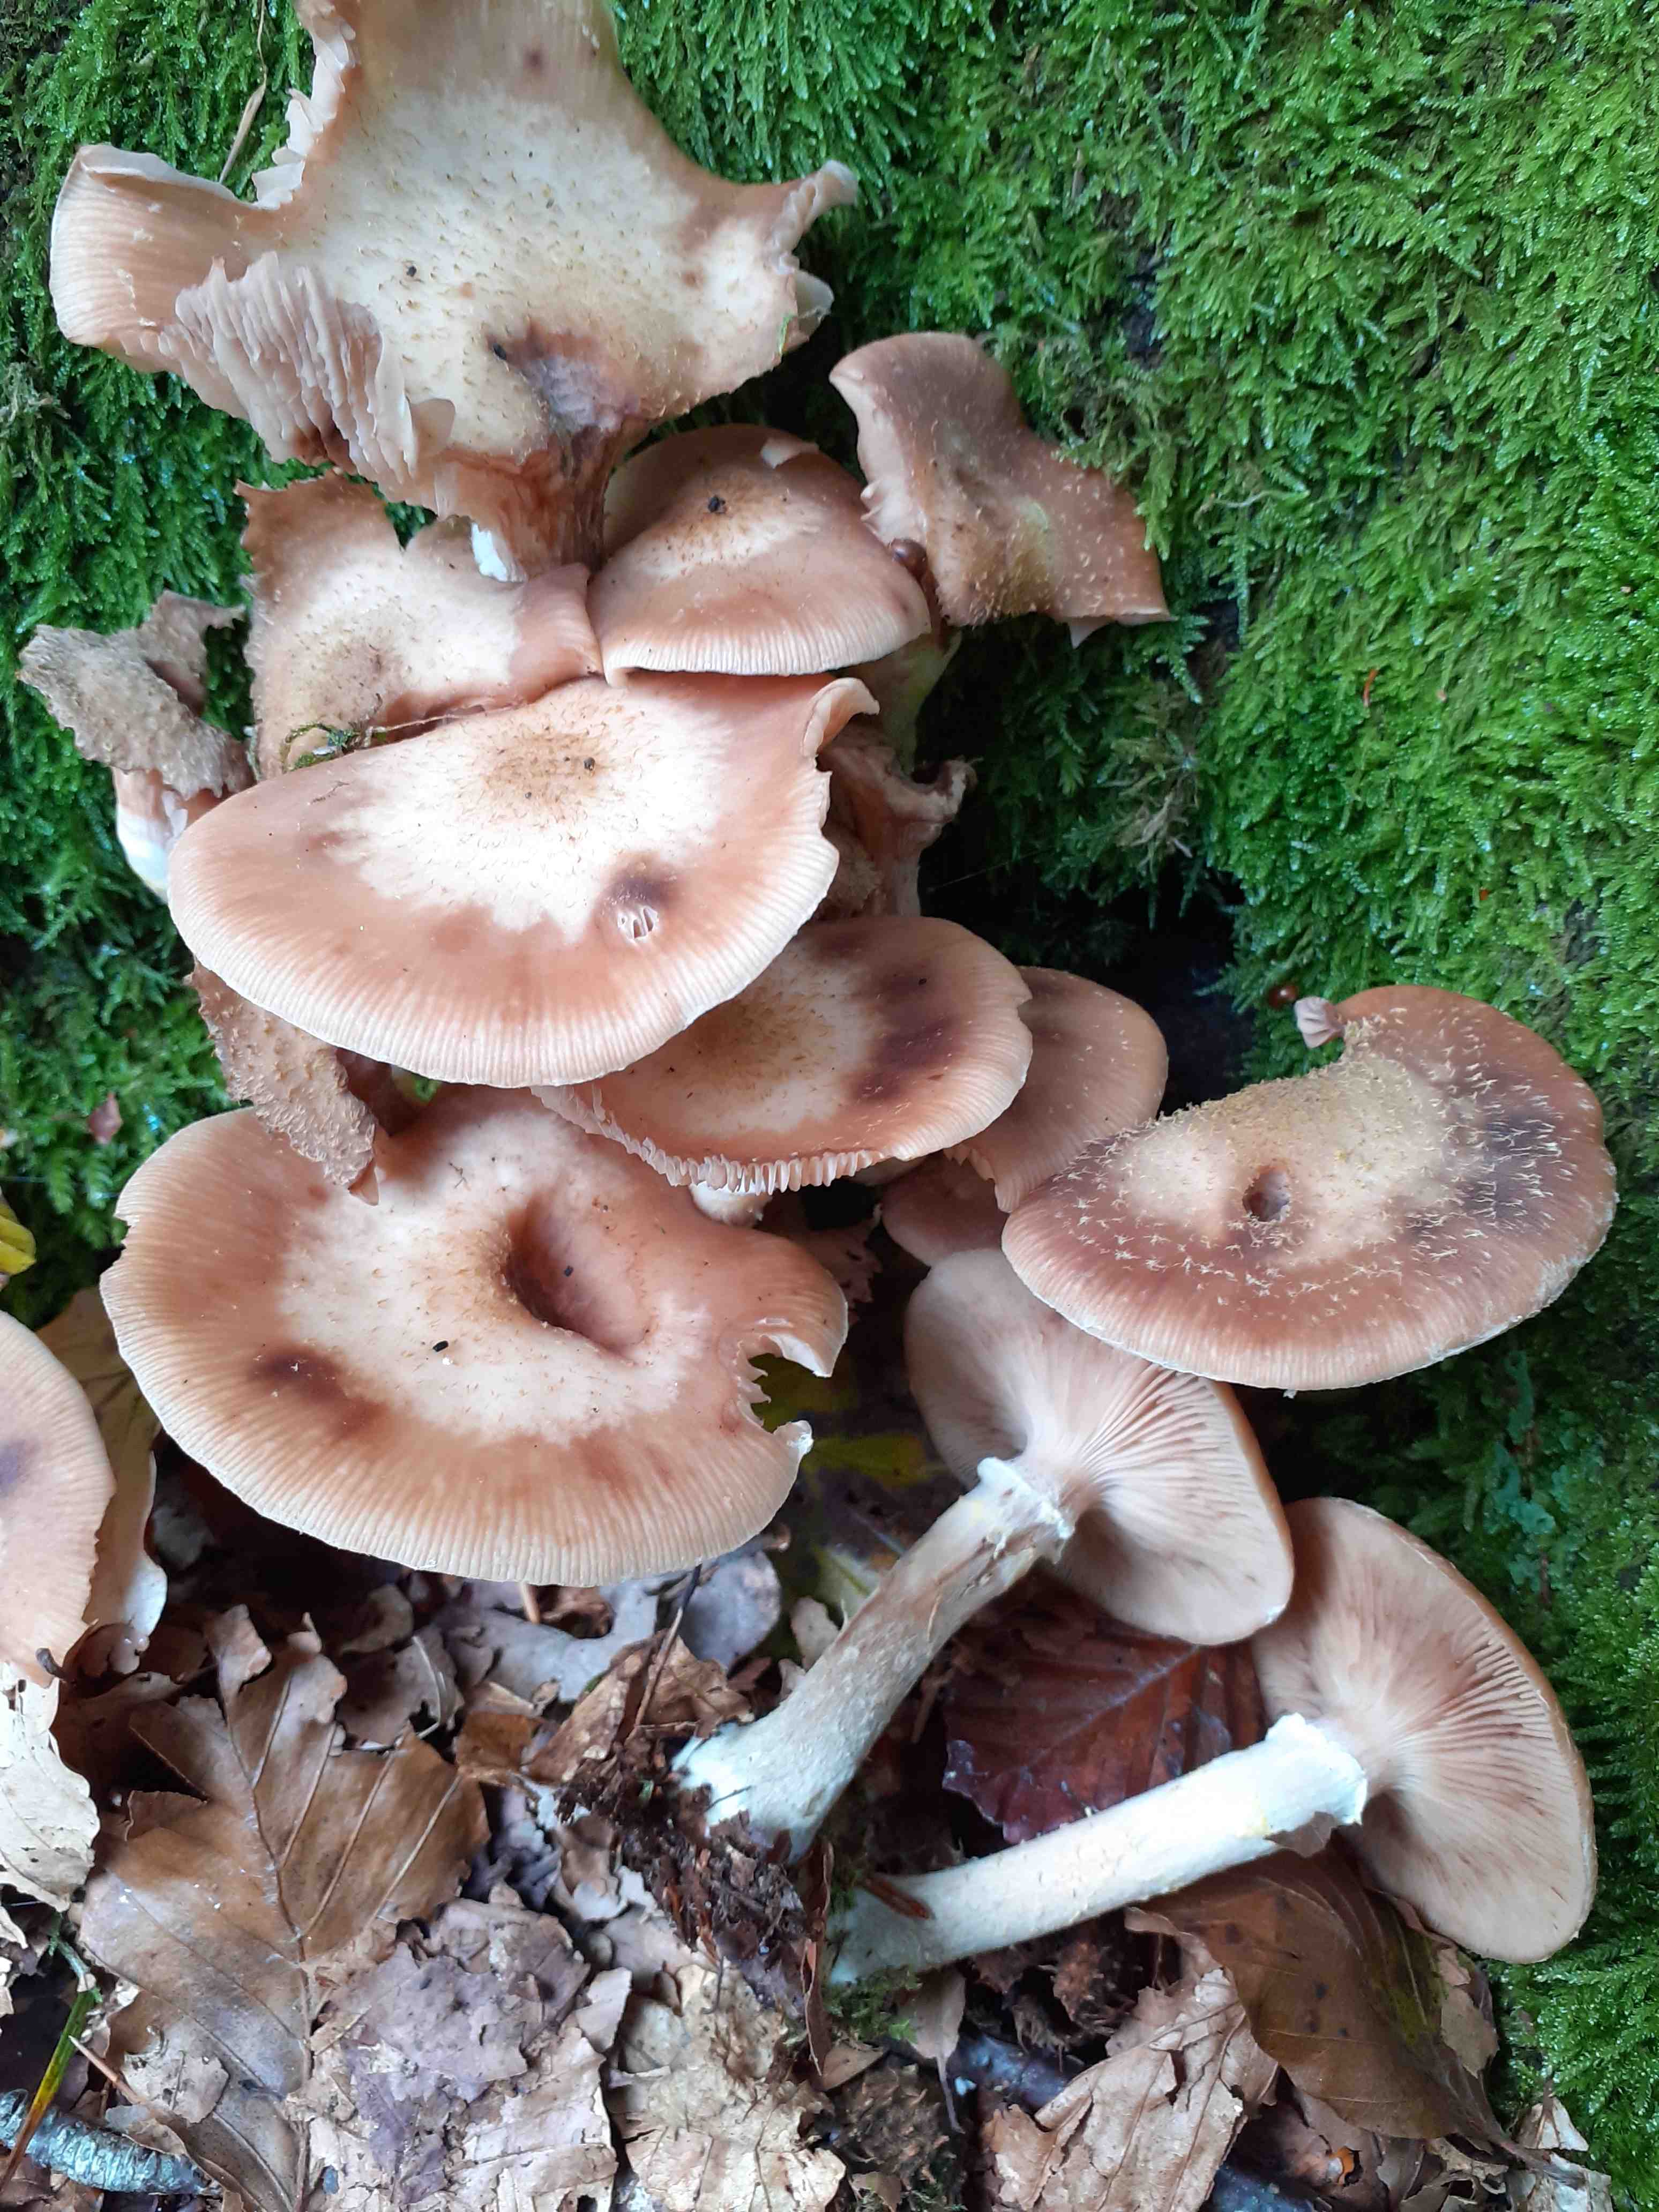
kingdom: Fungi
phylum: Basidiomycota
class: Agaricomycetes
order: Agaricales
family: Physalacriaceae
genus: Armillaria
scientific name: Armillaria lutea
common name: køllestokket honningsvamp
